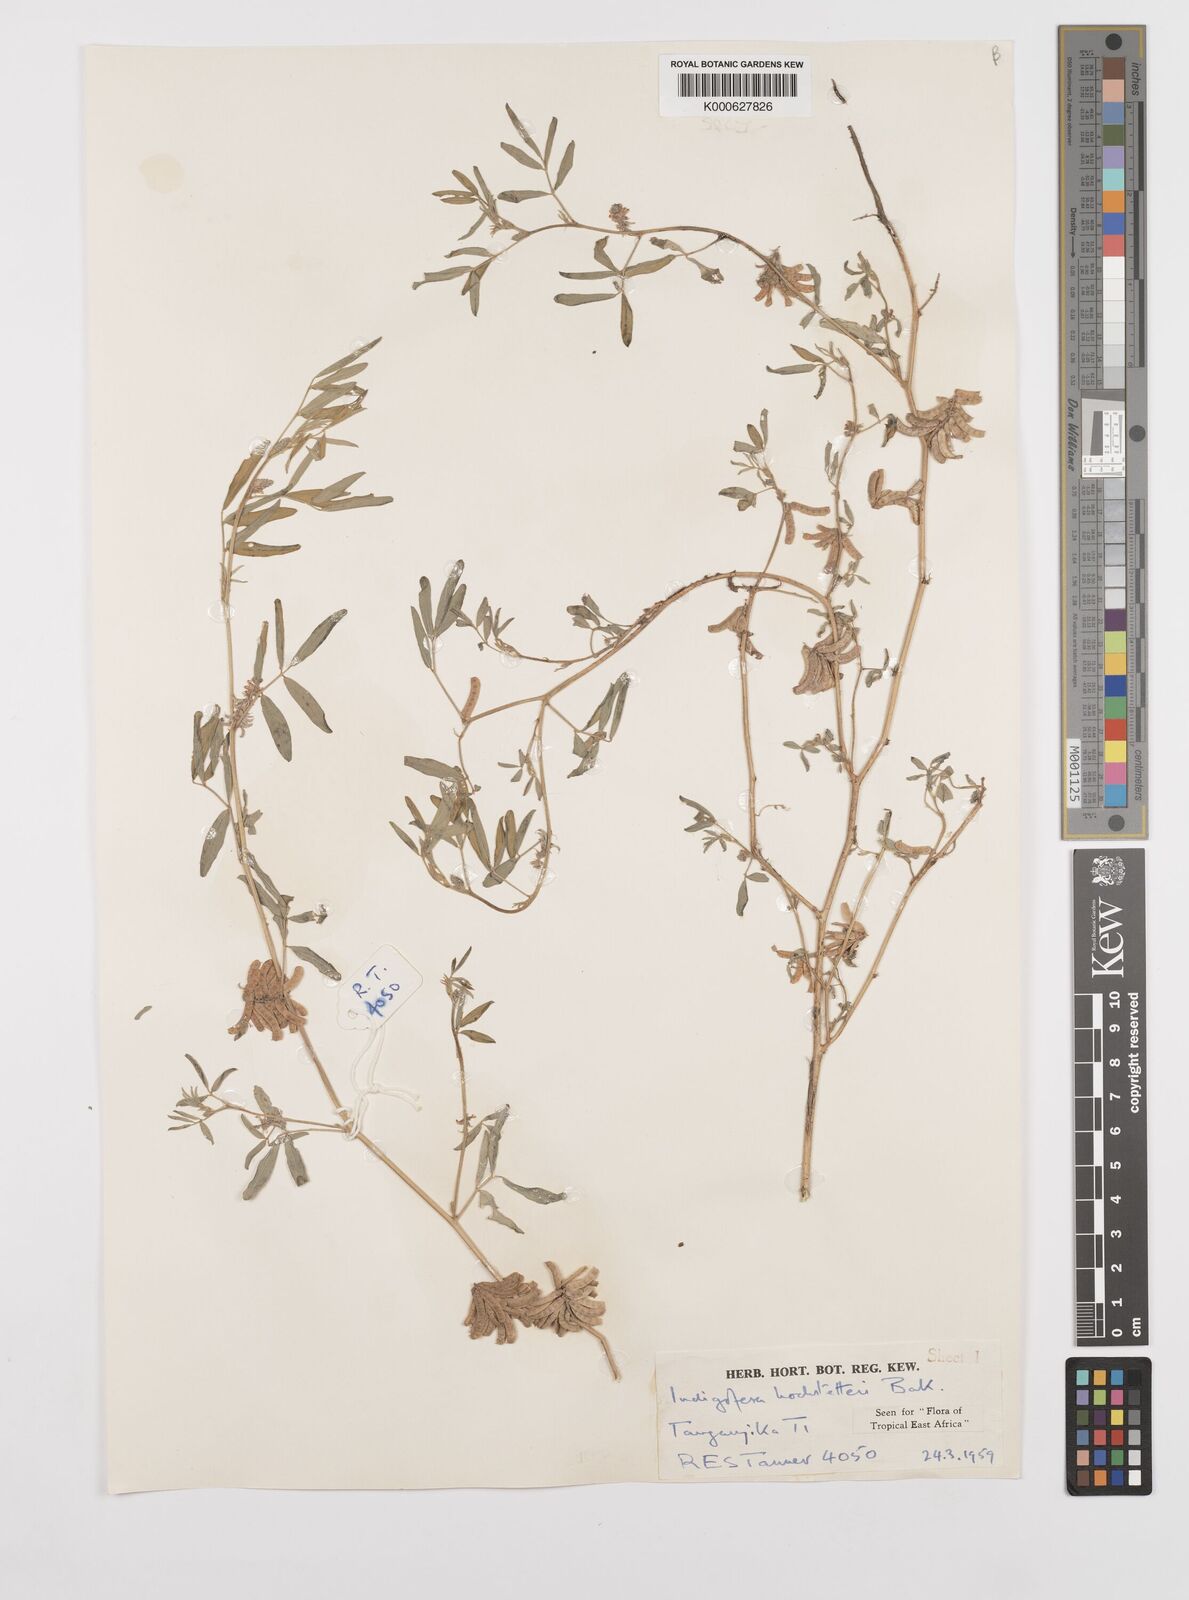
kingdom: Plantae
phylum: Tracheophyta
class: Magnoliopsida
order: Fabales
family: Fabaceae
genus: Indigofera
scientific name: Indigofera hochstetteri
